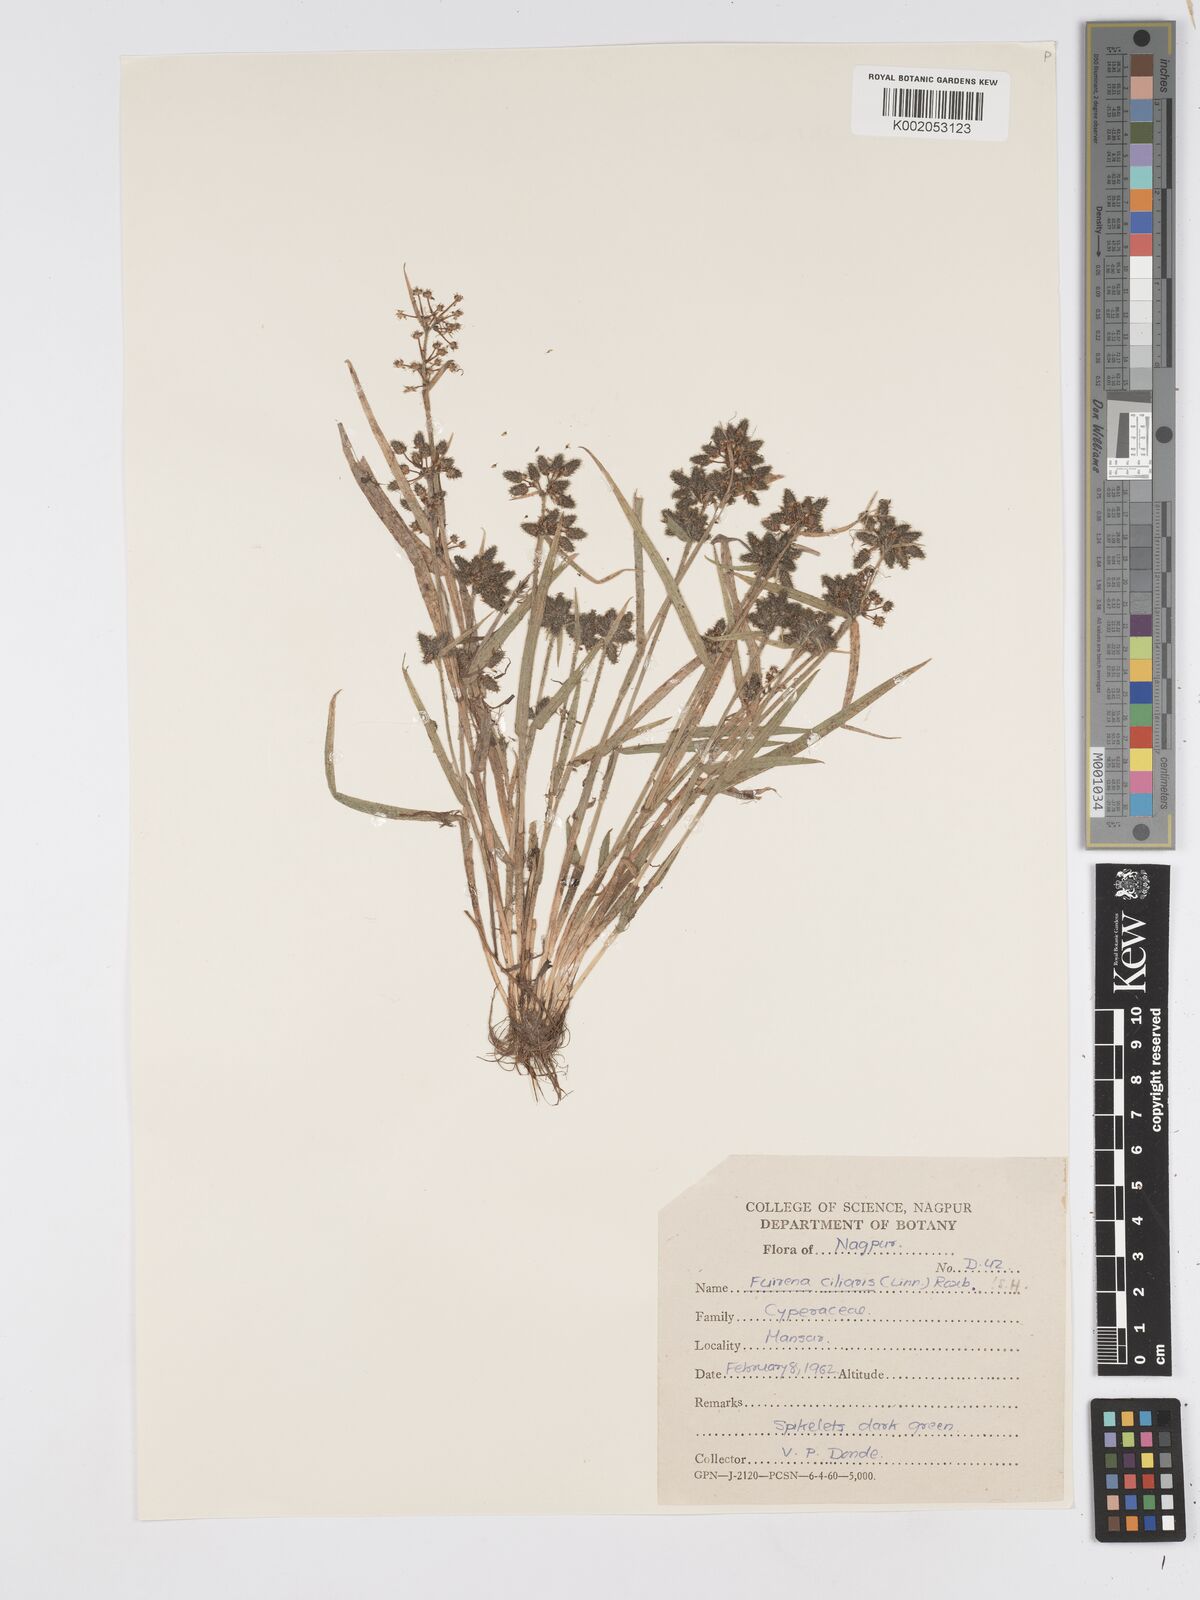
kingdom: Plantae
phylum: Tracheophyta
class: Liliopsida
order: Poales
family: Cyperaceae
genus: Fuirena
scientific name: Fuirena ciliaris
